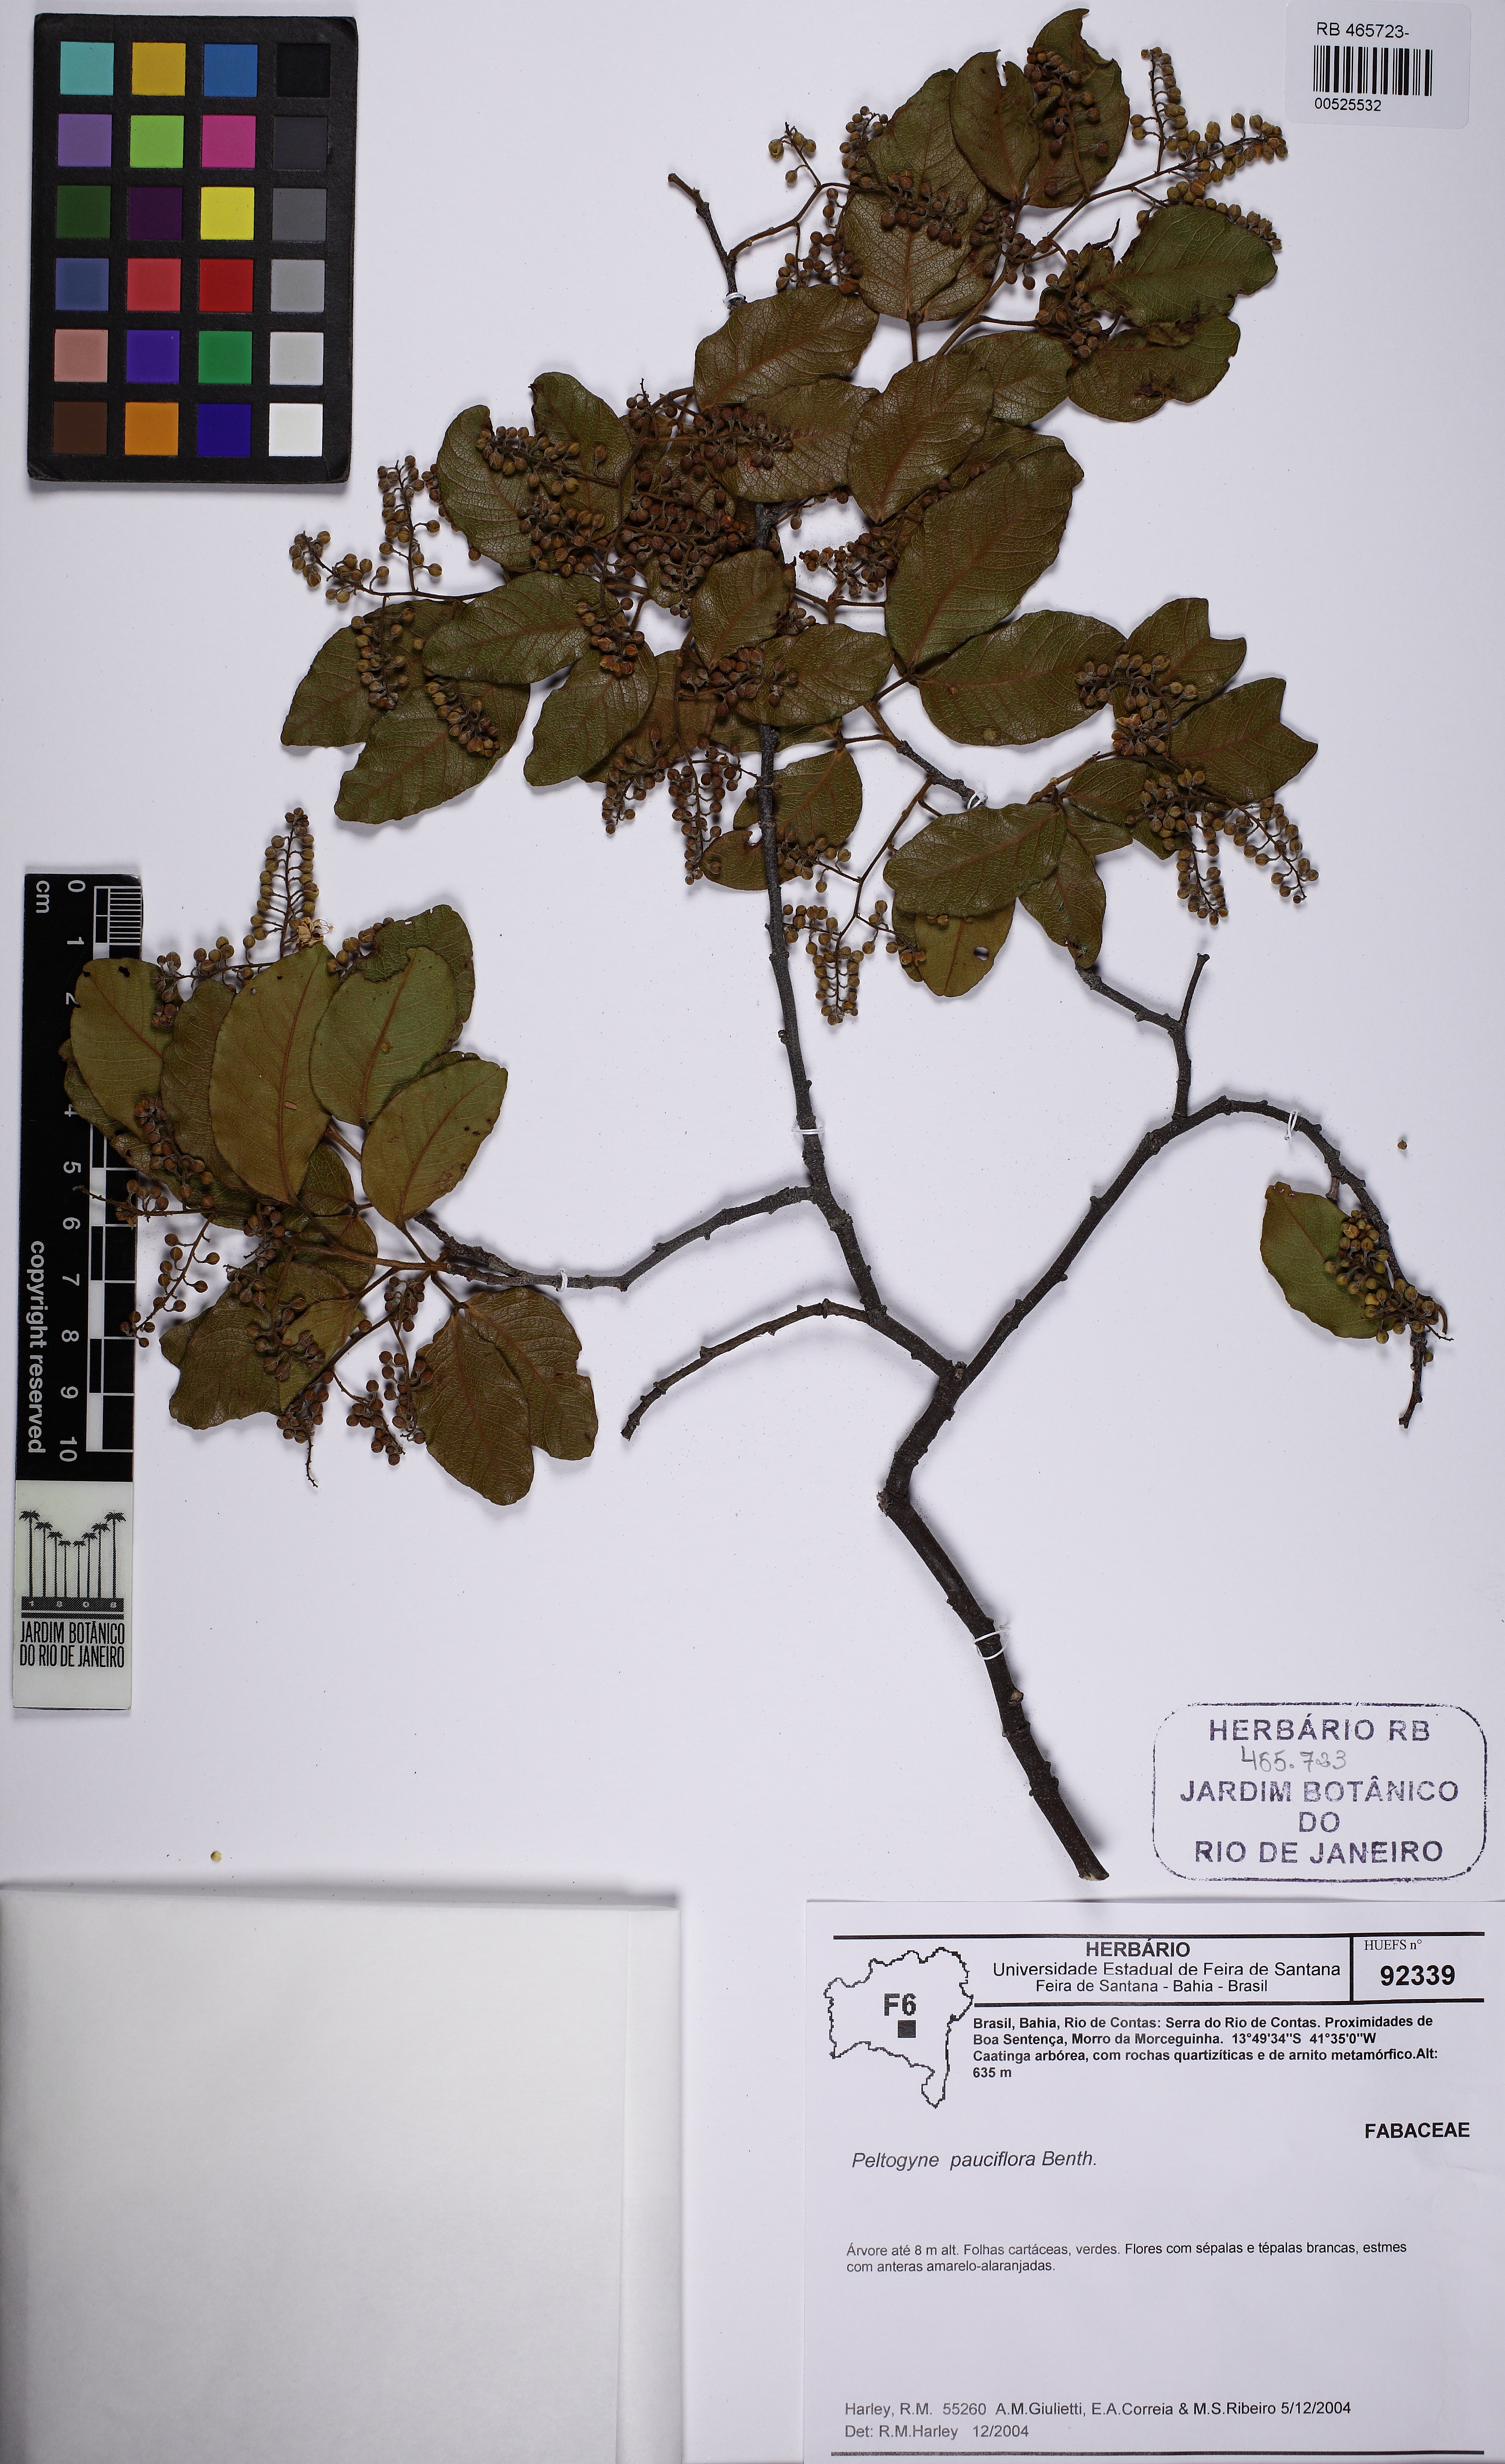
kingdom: Plantae
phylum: Tracheophyta
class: Magnoliopsida
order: Fabales
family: Fabaceae
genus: Peltogyne
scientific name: Peltogyne pauciflora
